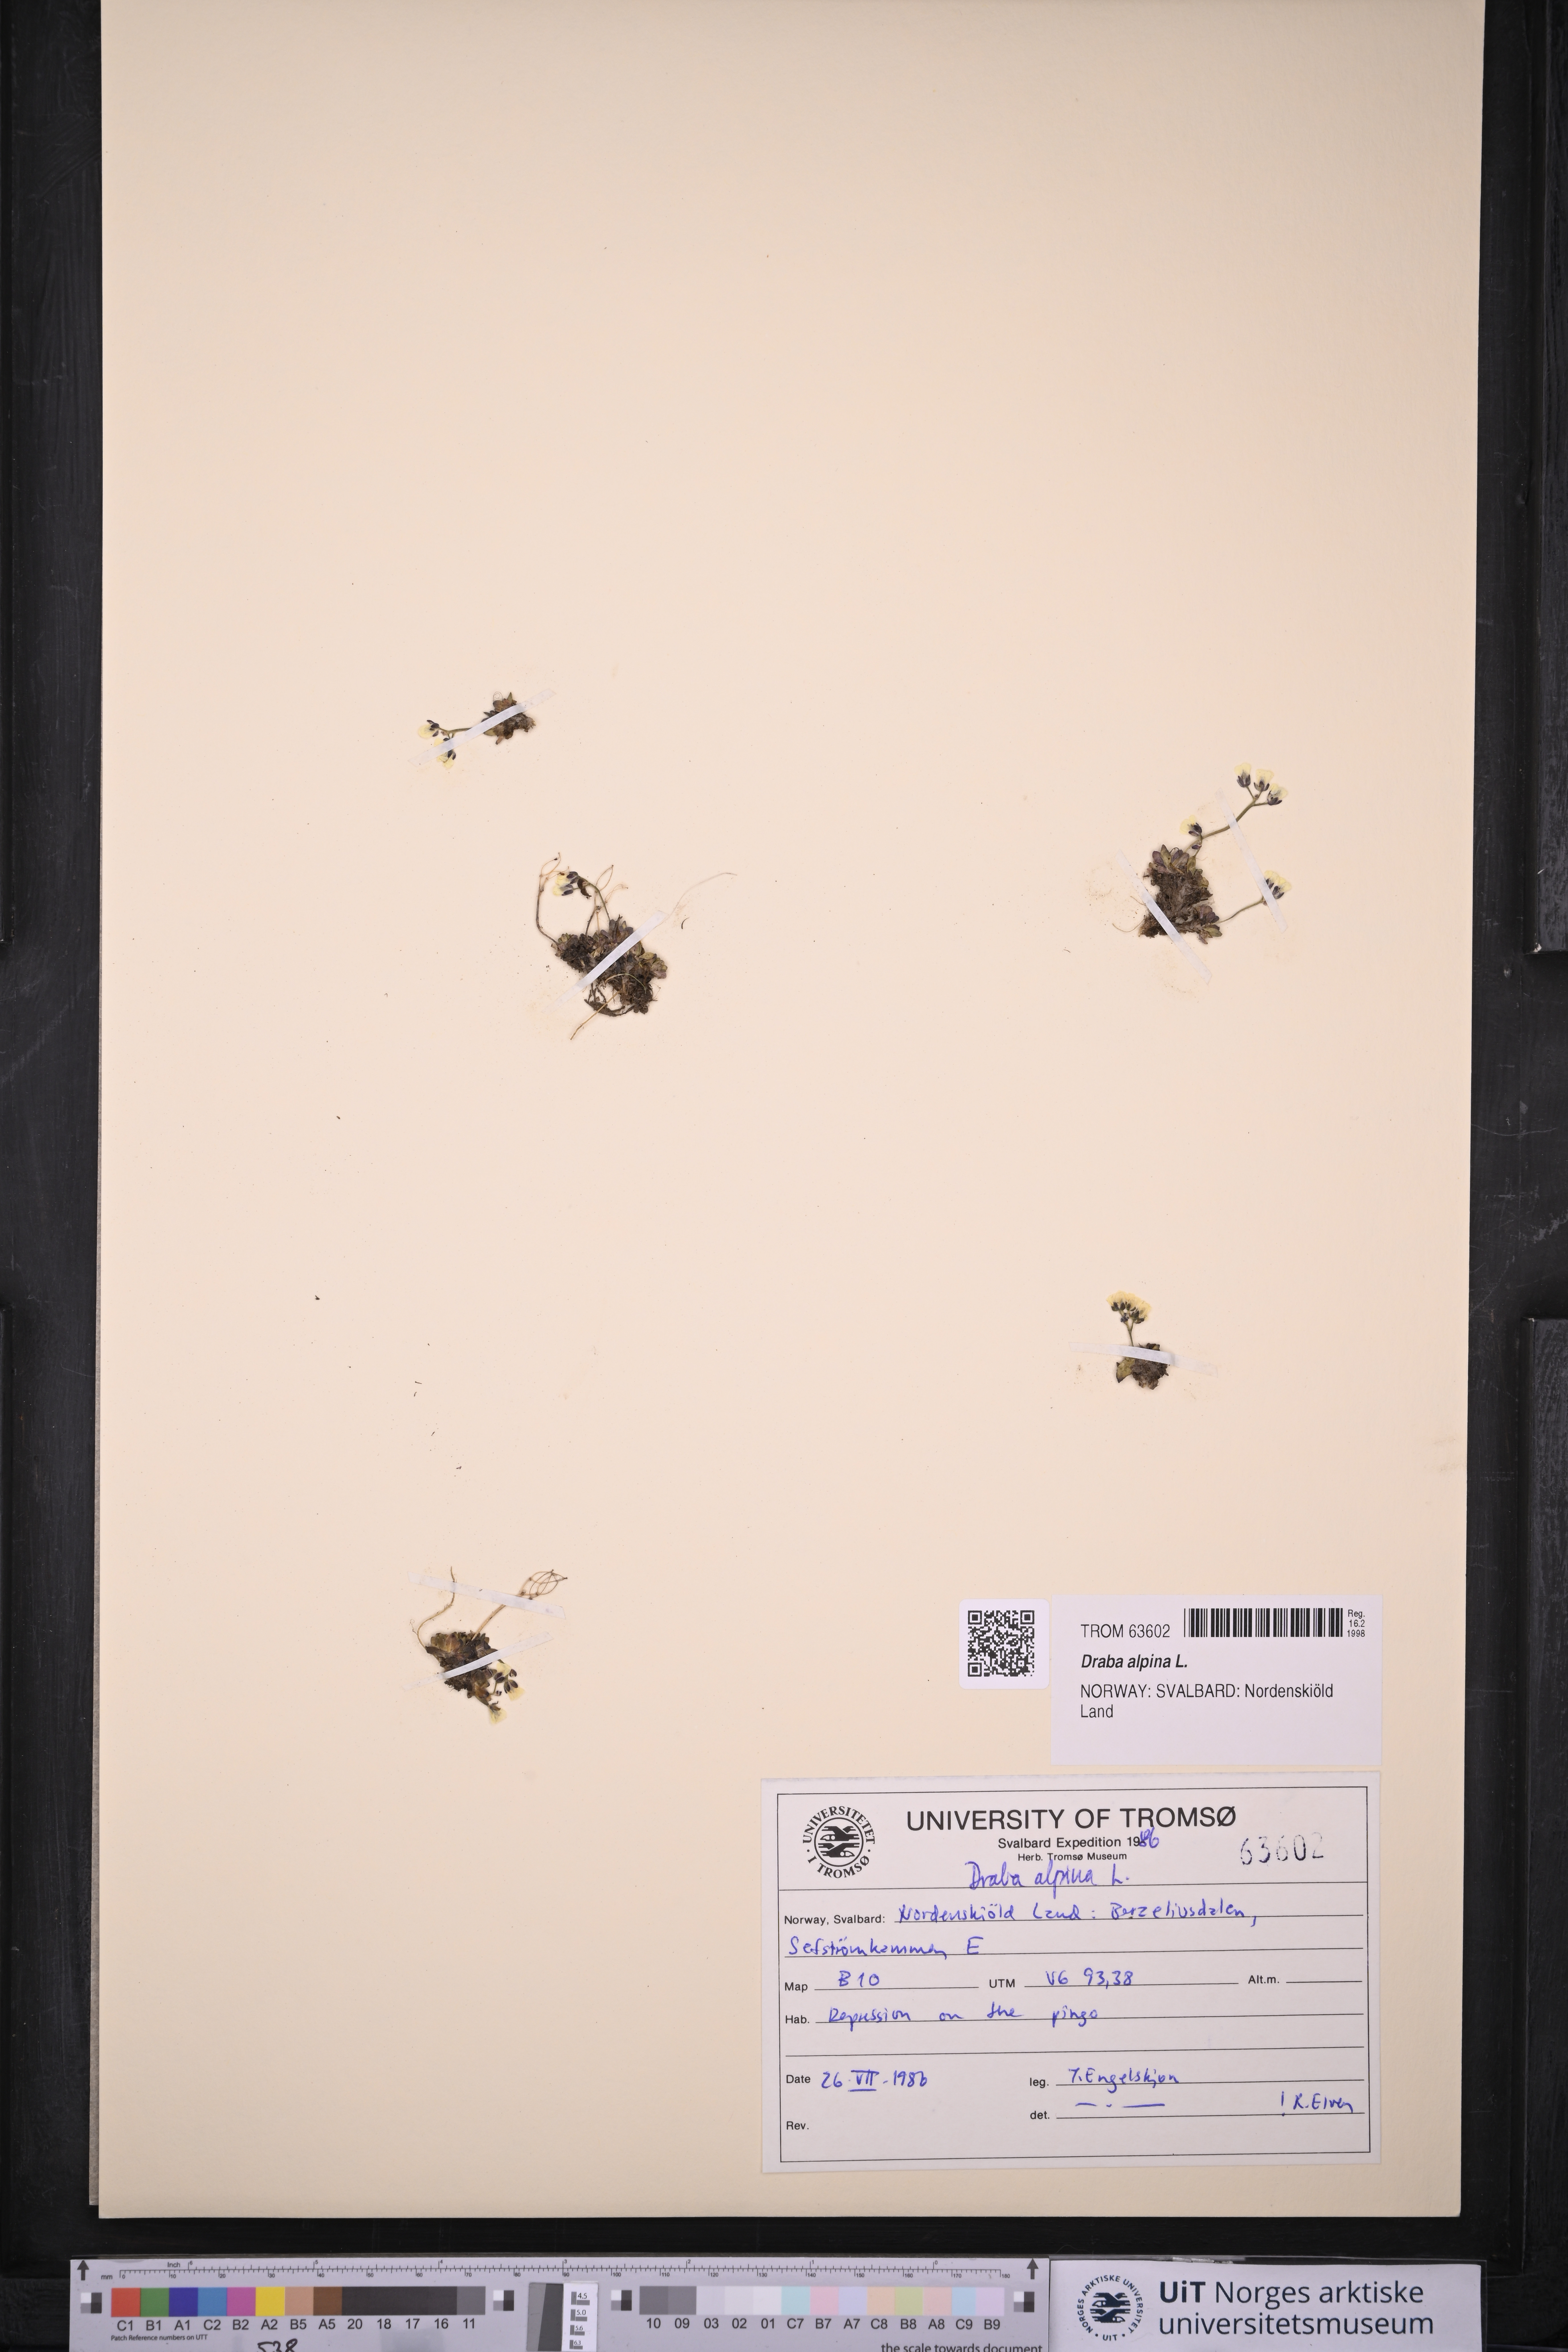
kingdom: Plantae
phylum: Tracheophyta
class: Magnoliopsida
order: Brassicales
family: Brassicaceae
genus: Draba
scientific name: Draba alpina
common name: Alpine draba
